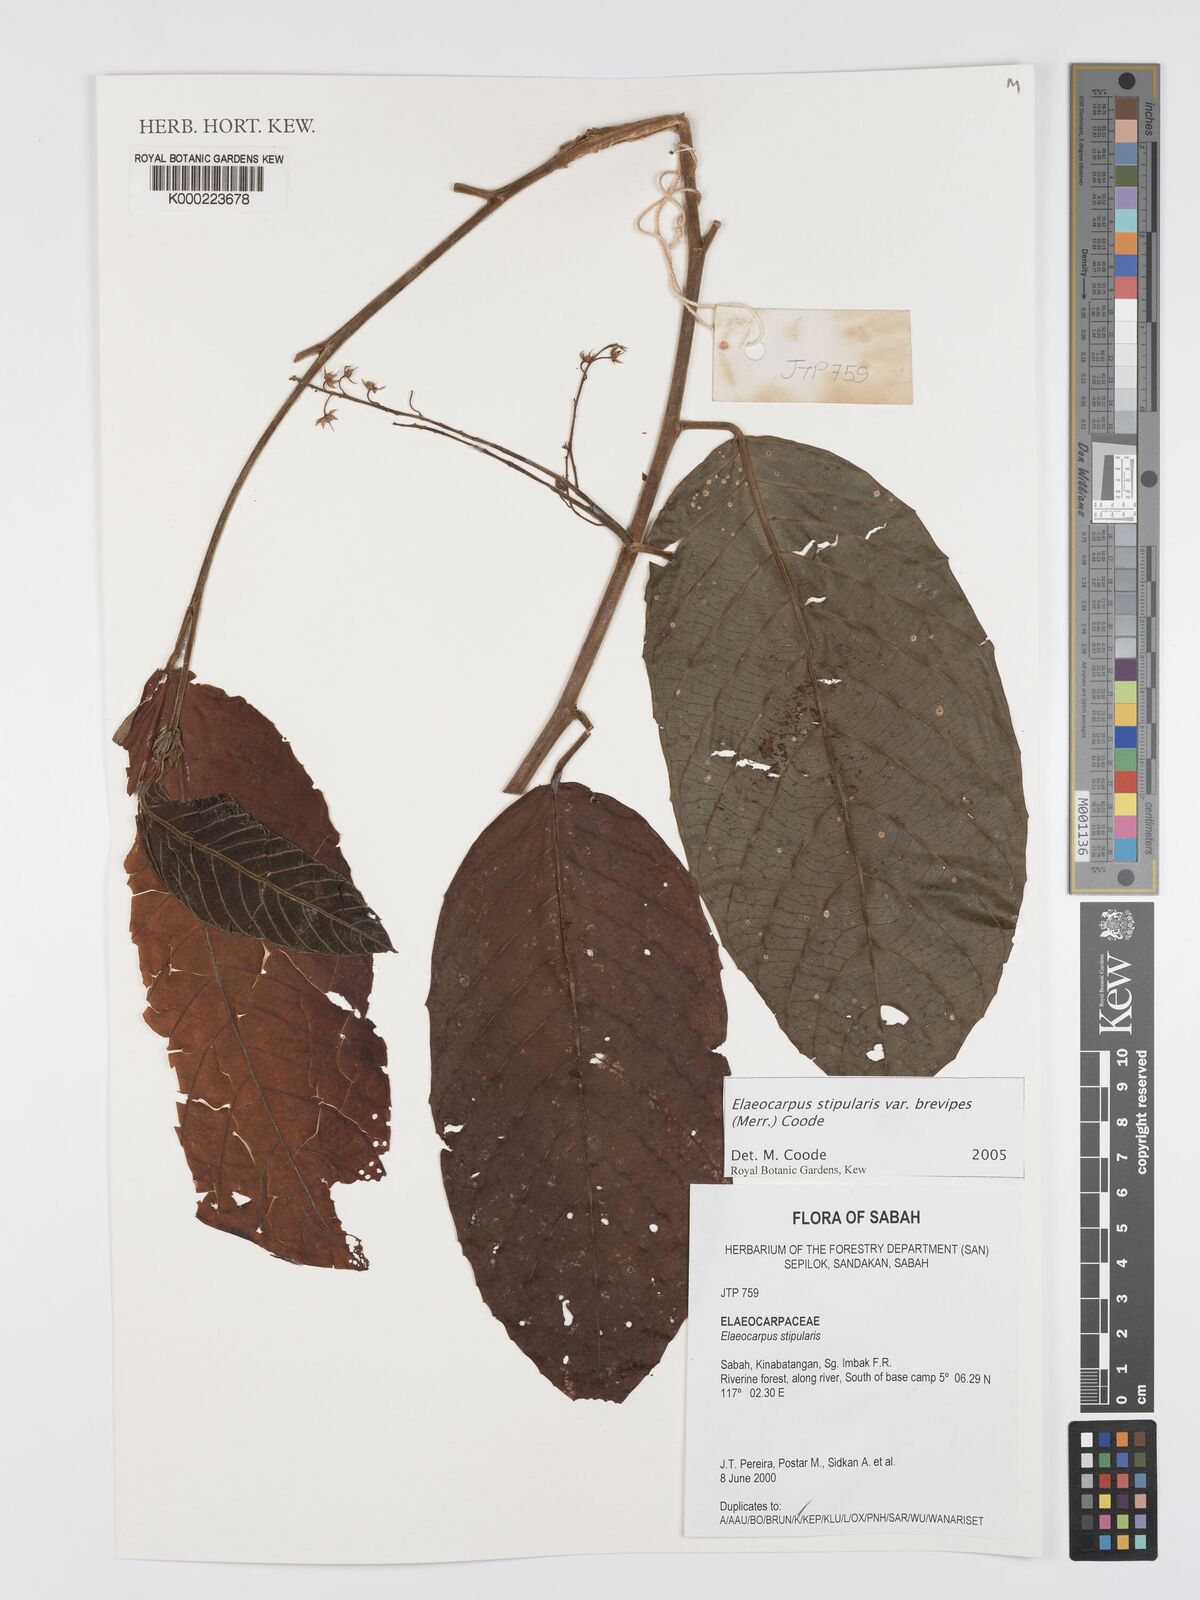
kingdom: Plantae
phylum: Tracheophyta
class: Magnoliopsida
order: Oxalidales
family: Elaeocarpaceae
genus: Elaeocarpus
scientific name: Elaeocarpus stipularis
